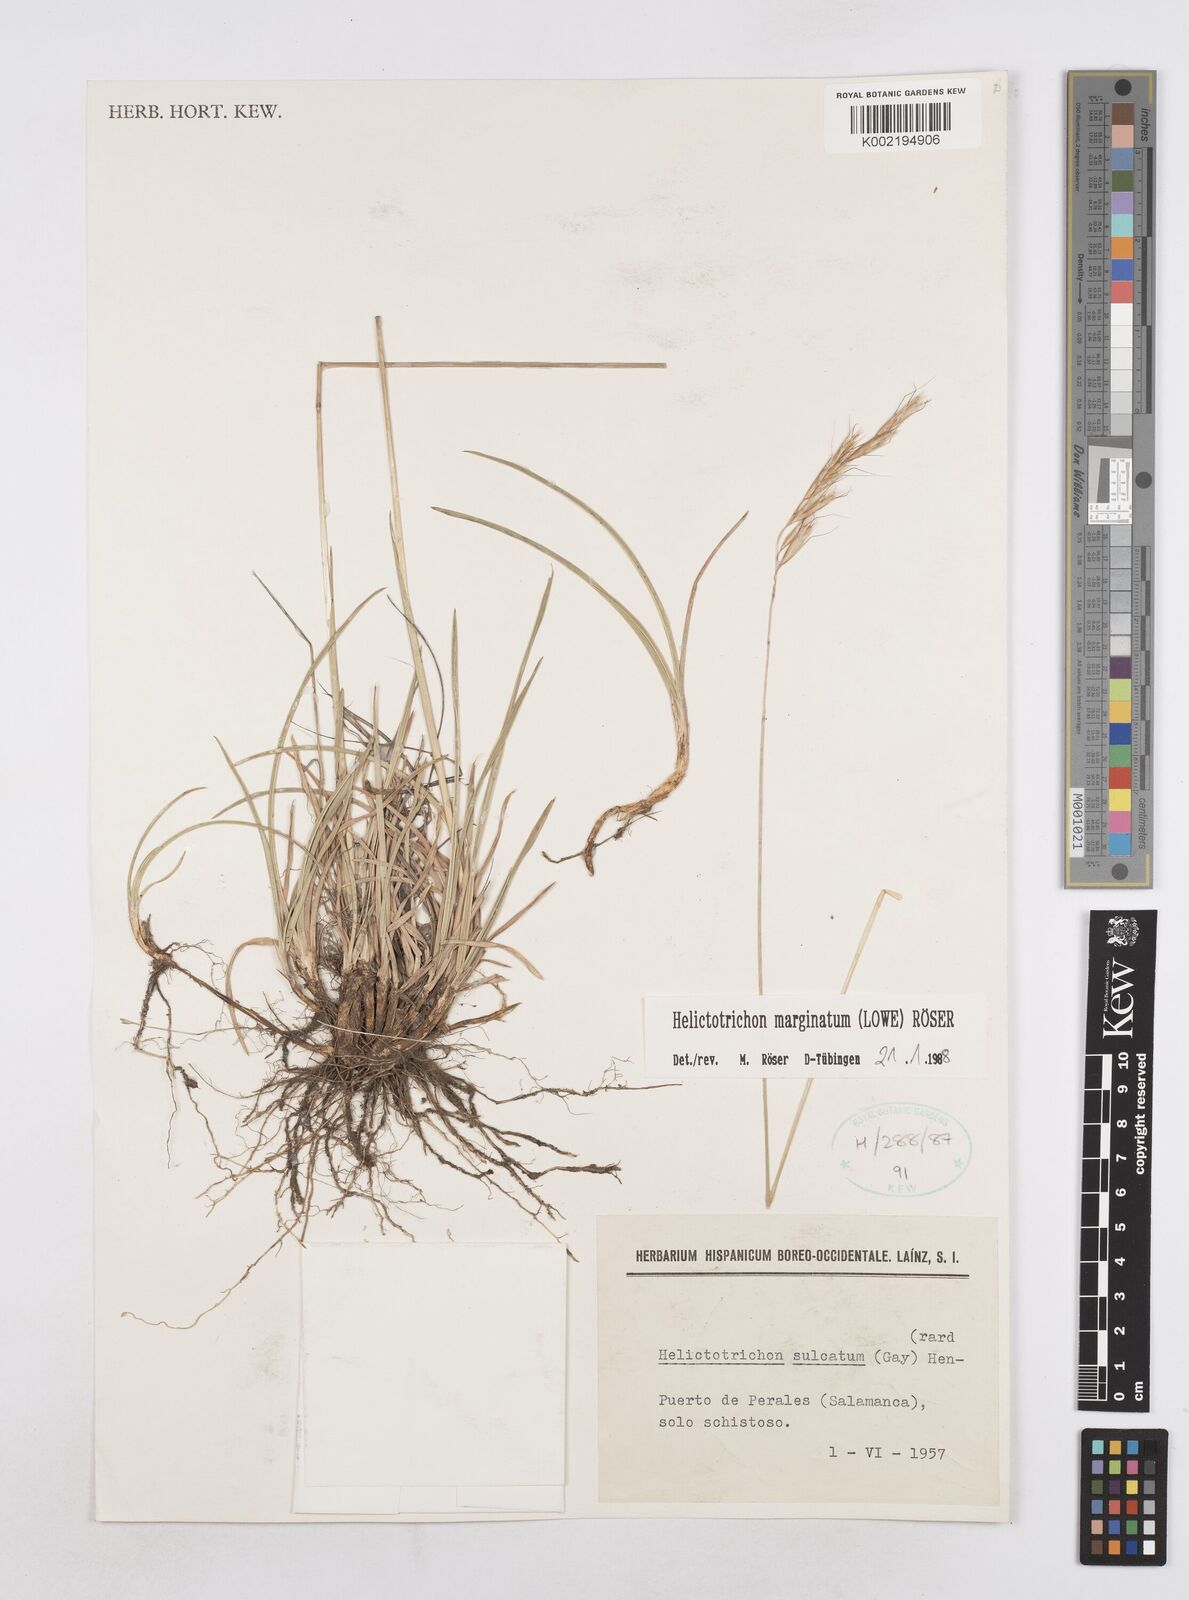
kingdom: Plantae
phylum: Tracheophyta
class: Liliopsida
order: Poales
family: Poaceae
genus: Helictotrichon
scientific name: Helictotrichon
